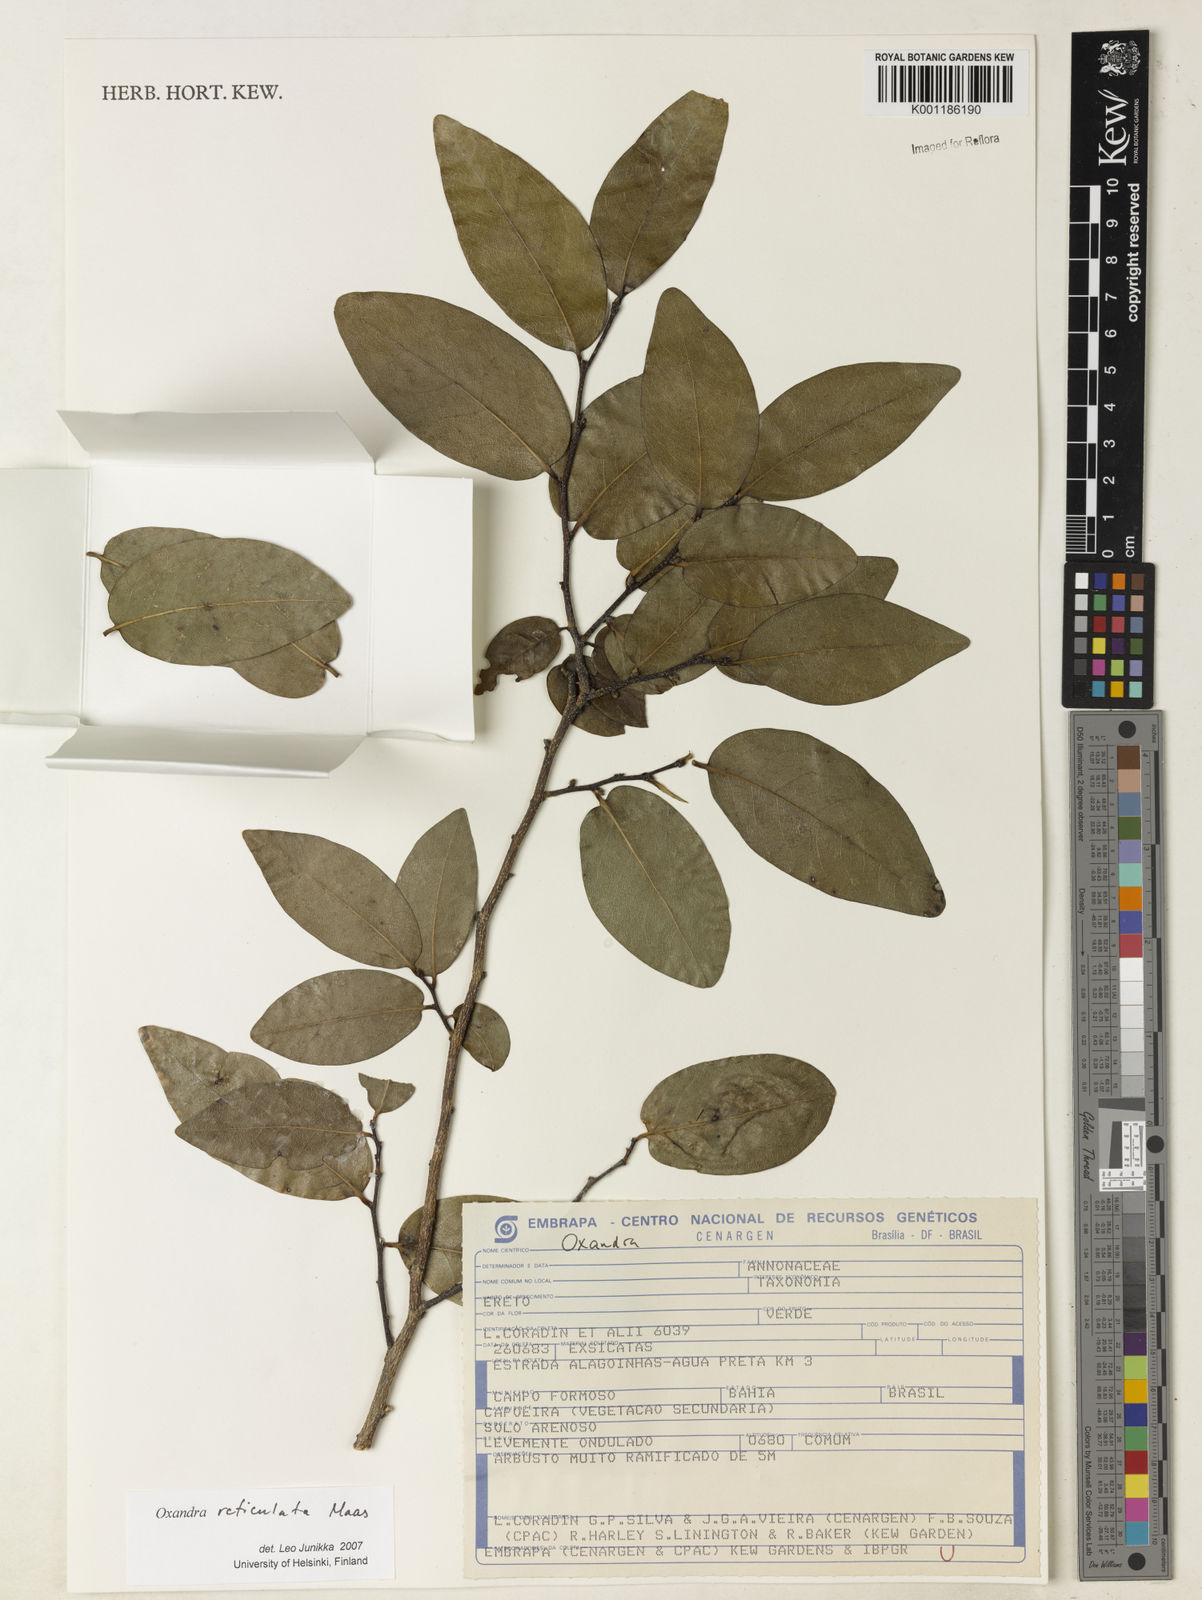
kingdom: Plantae
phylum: Tracheophyta
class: Magnoliopsida
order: Magnoliales
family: Annonaceae
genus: Oxandra
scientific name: Oxandra reticulata
